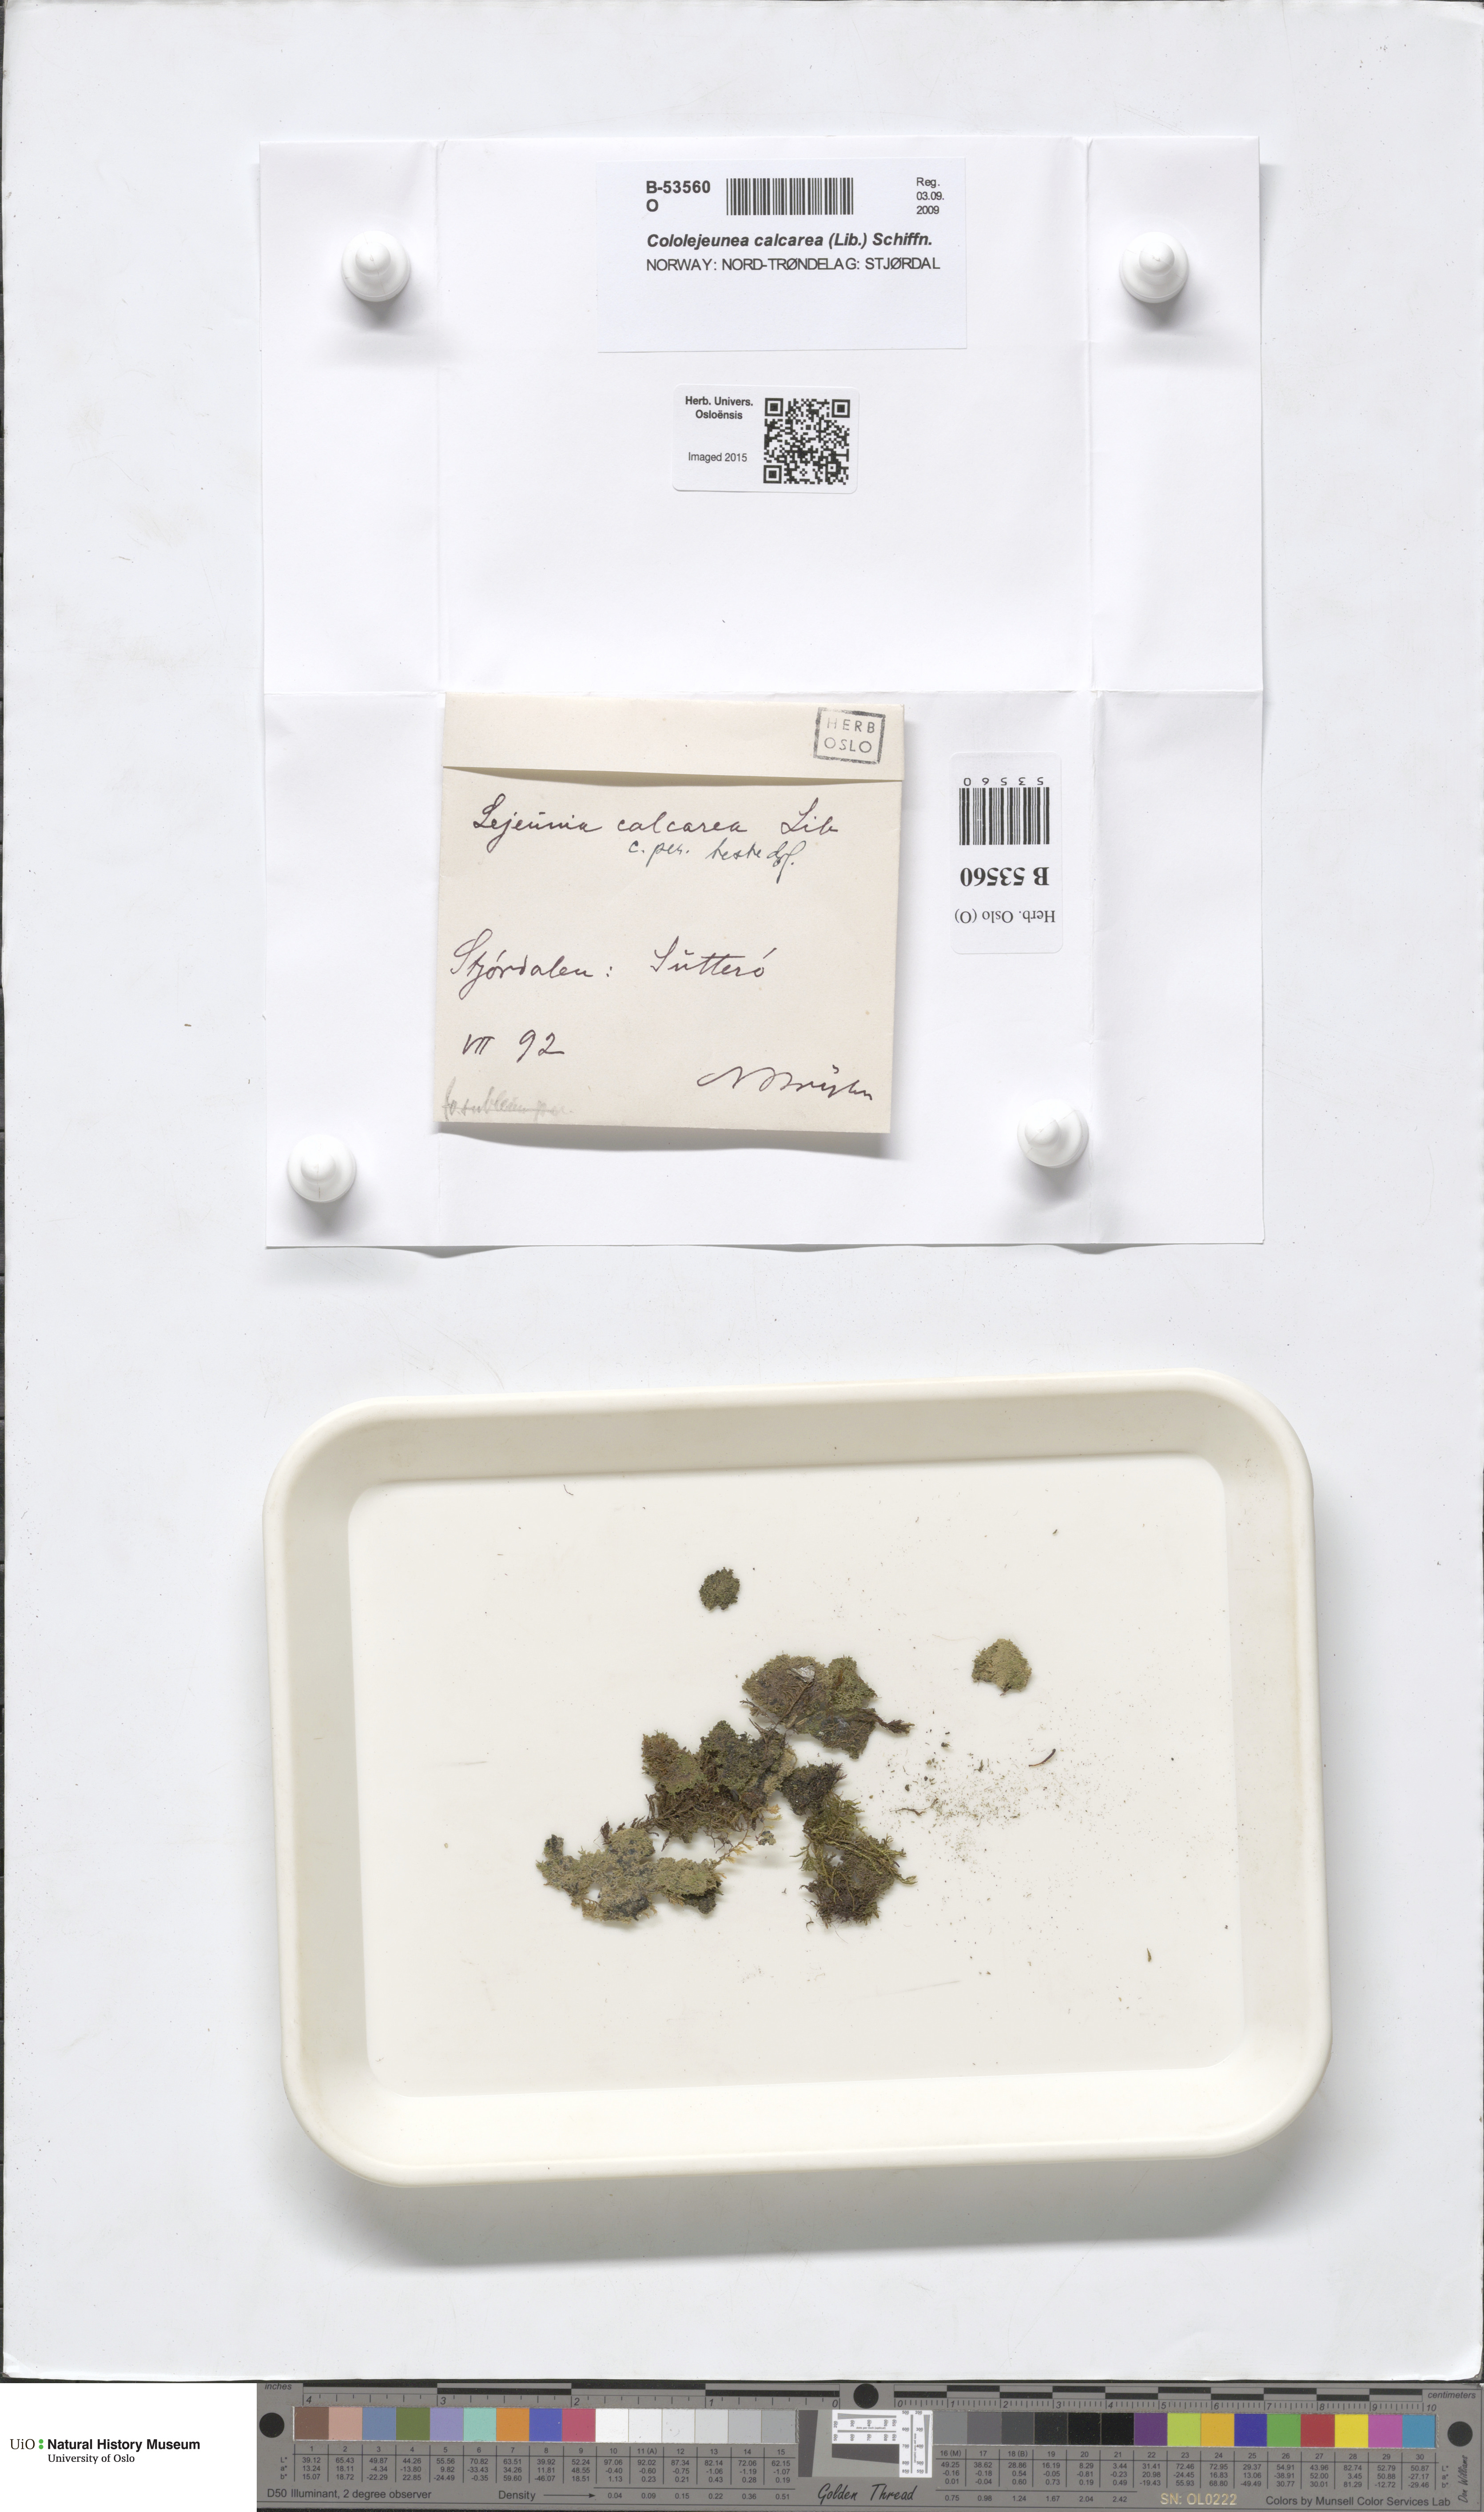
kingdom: Plantae
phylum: Marchantiophyta
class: Jungermanniopsida
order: Porellales
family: Lejeuneaceae
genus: Cololejeunea
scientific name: Cololejeunea calcarea
